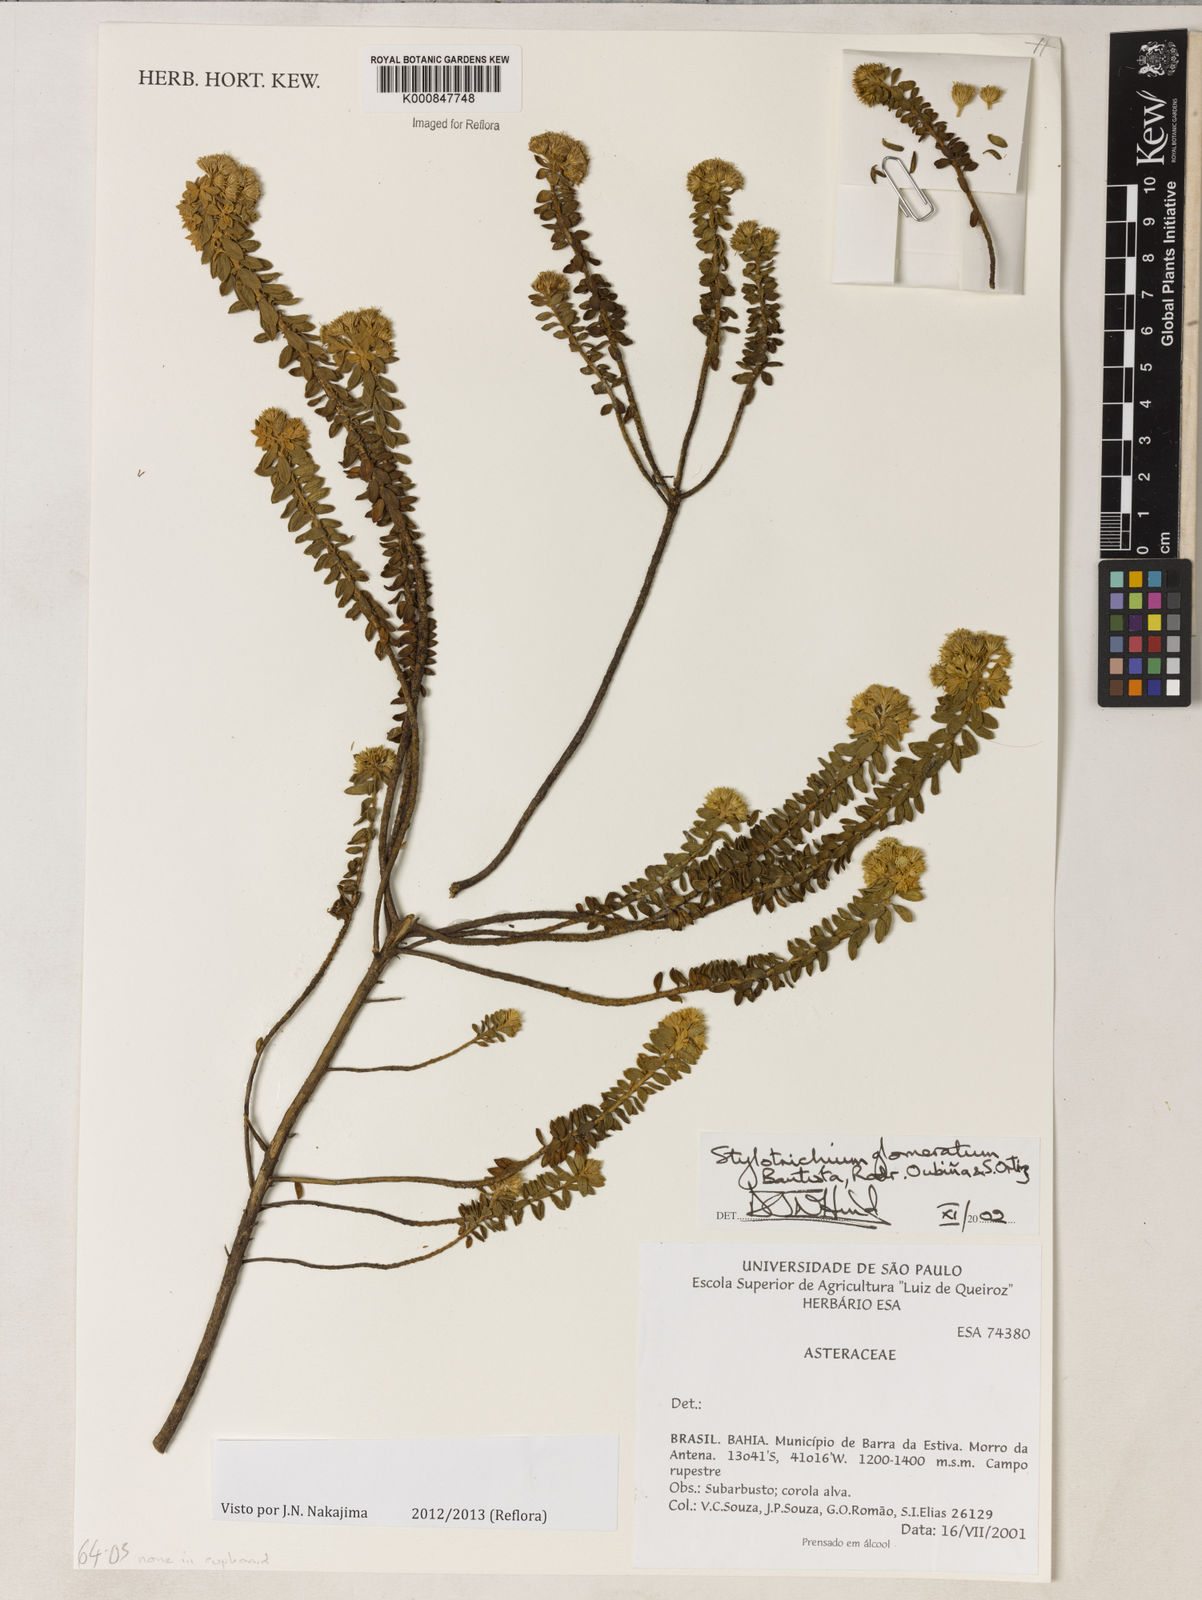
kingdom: Plantae
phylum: Tracheophyta
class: Magnoliopsida
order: Asterales
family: Asteraceae
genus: Stylotrichium
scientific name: Stylotrichium
